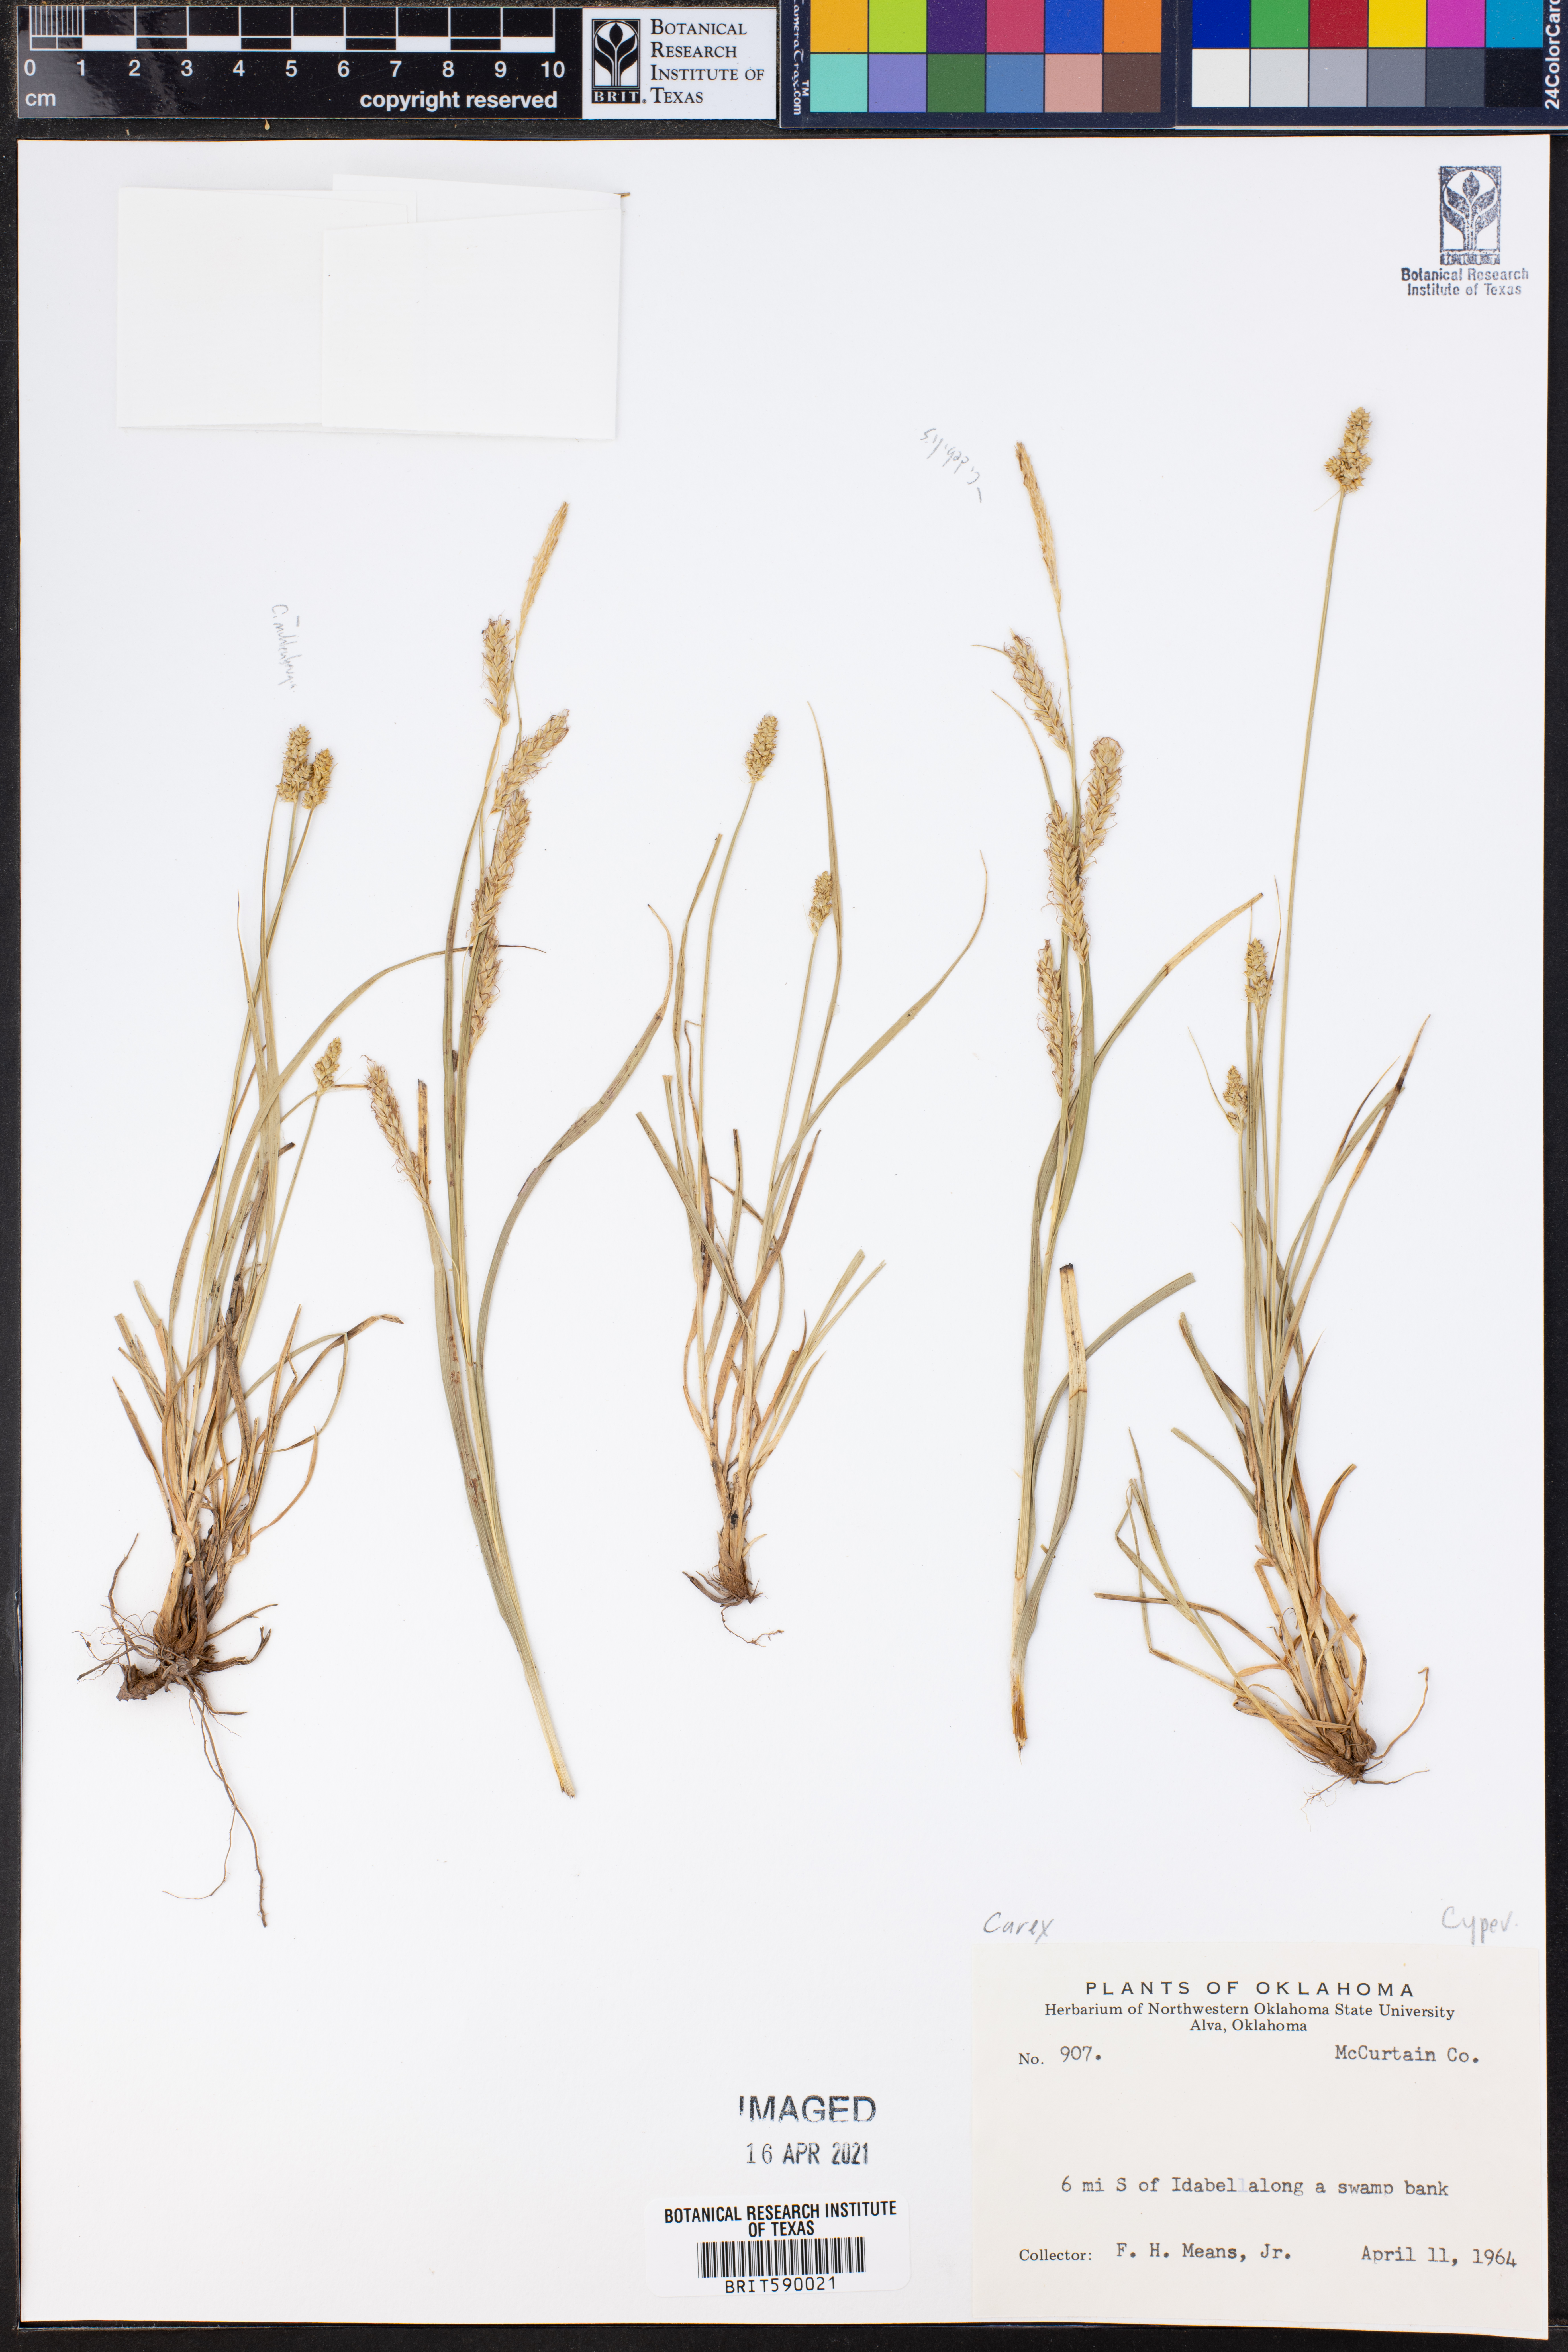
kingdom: Plantae
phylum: Tracheophyta
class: Liliopsida
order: Poales
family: Cyperaceae
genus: Carex
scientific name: Carex
